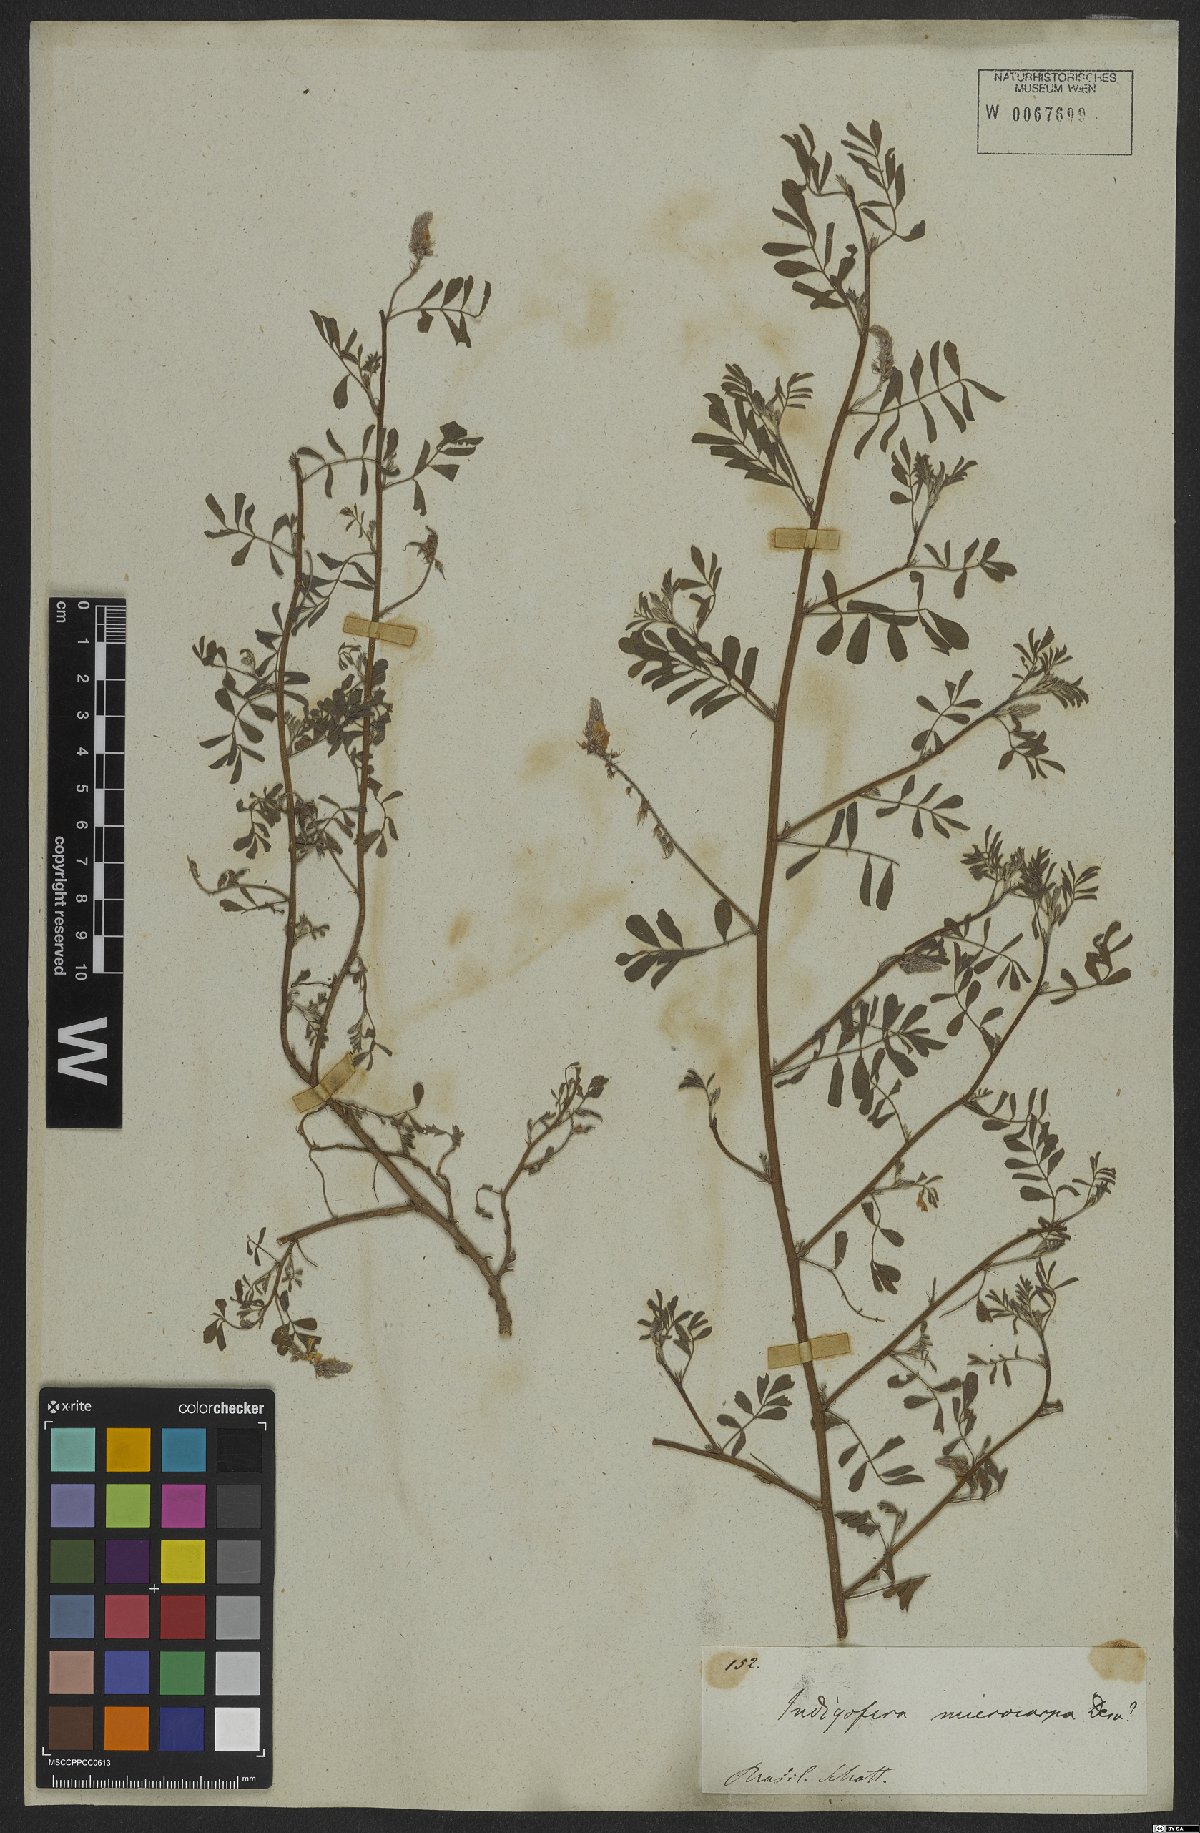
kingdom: Plantae
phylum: Tracheophyta
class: Magnoliopsida
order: Fabales
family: Fabaceae
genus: Indigofera
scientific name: Indigofera microcarpa
